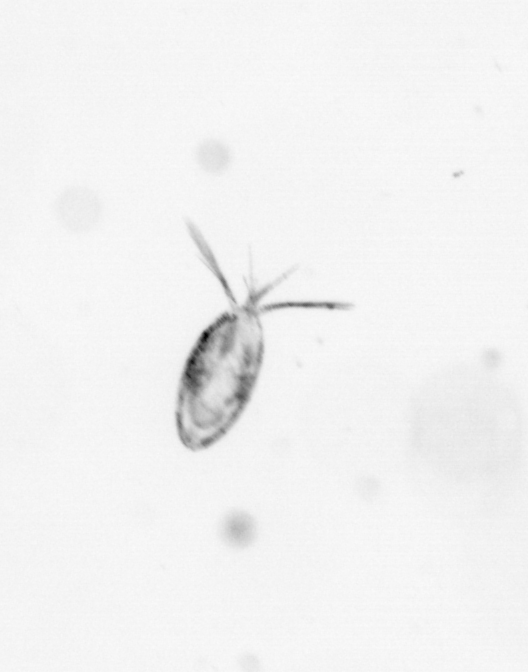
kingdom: Animalia
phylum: Arthropoda
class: Copepoda
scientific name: Copepoda
